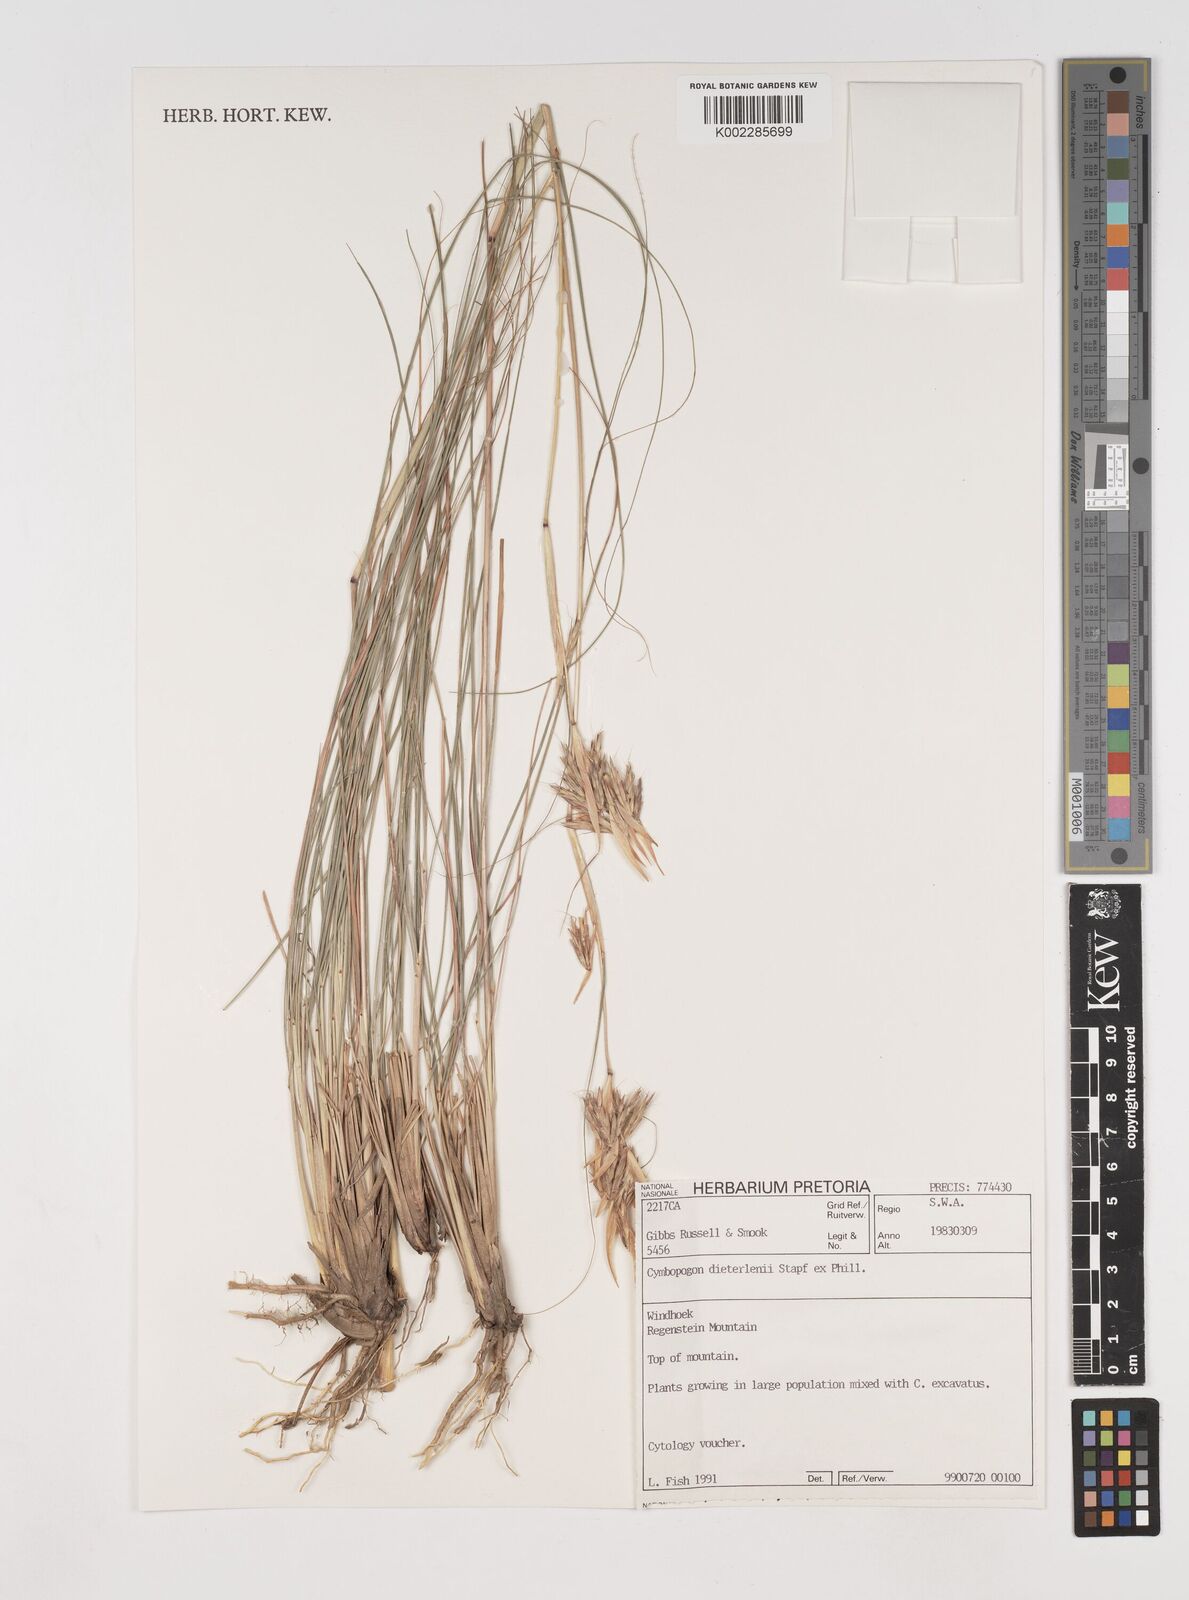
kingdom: Plantae
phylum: Tracheophyta
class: Liliopsida
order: Poales
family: Poaceae
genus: Cymbopogon
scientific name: Cymbopogon dieterlenii
